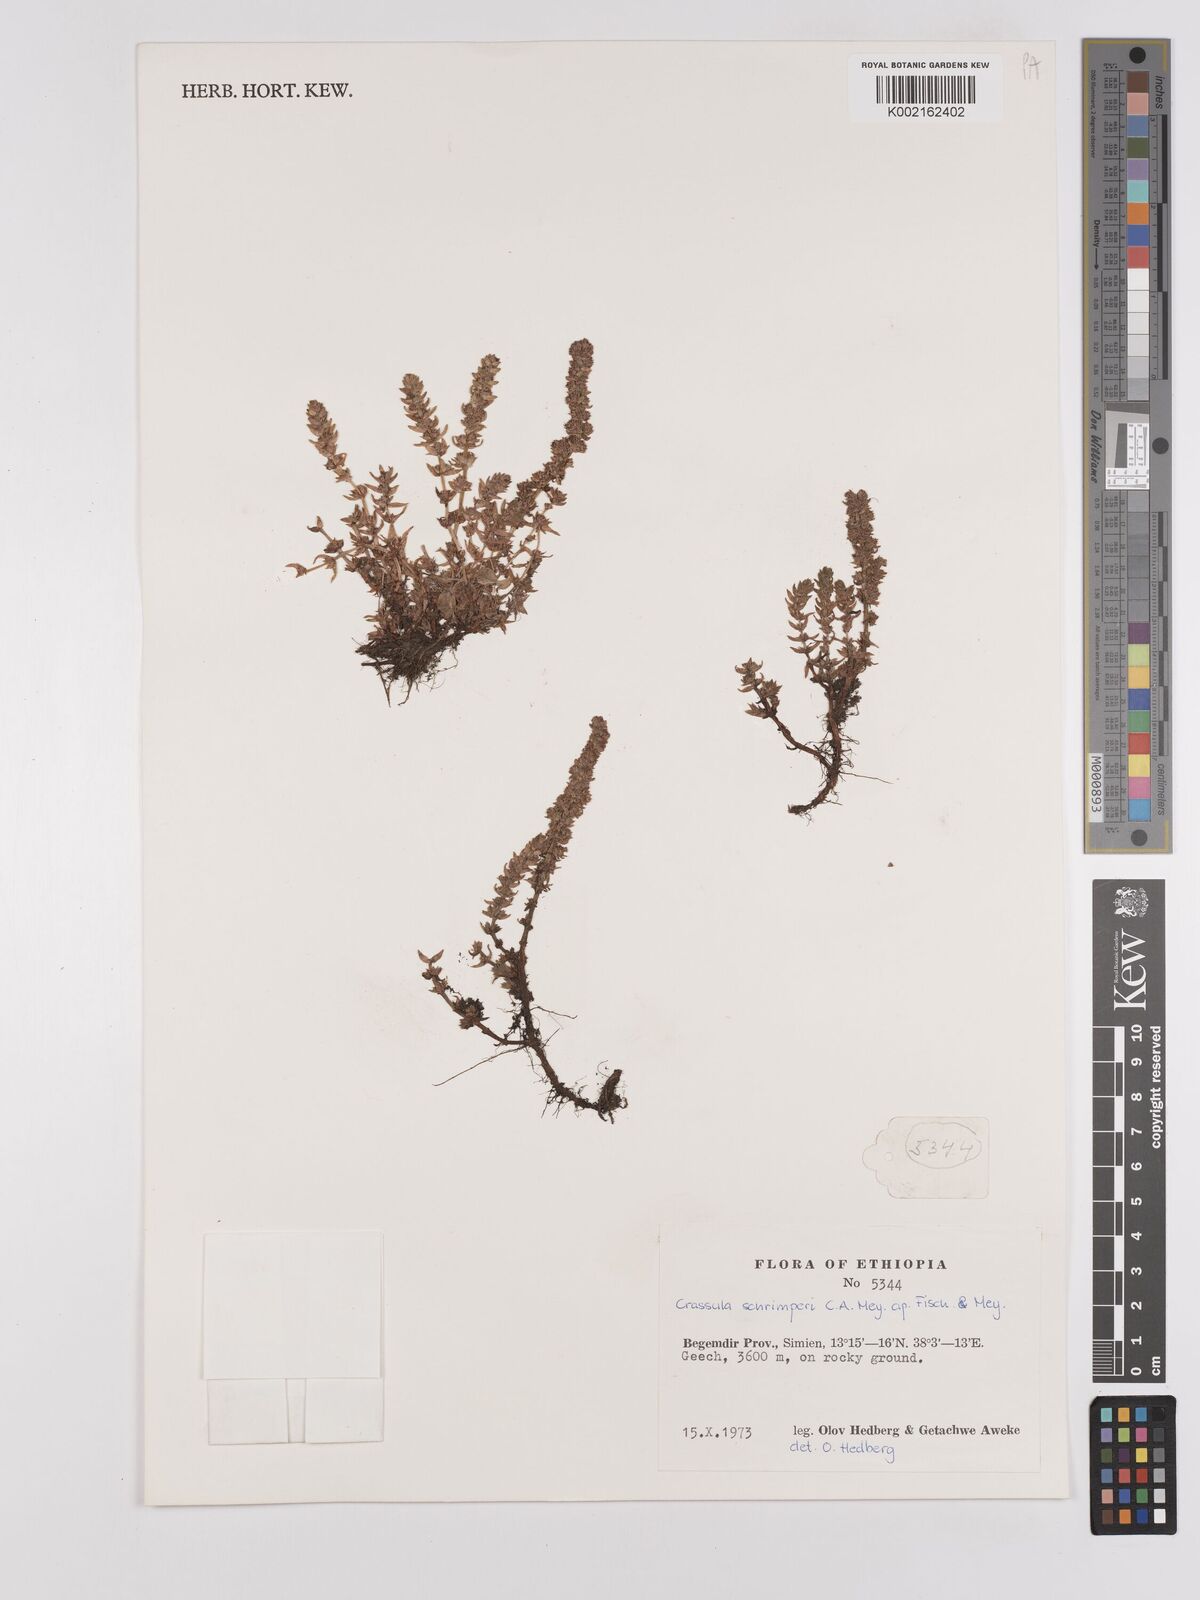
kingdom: Plantae
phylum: Tracheophyta
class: Magnoliopsida
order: Saxifragales
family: Crassulaceae
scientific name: Crassulaceae
